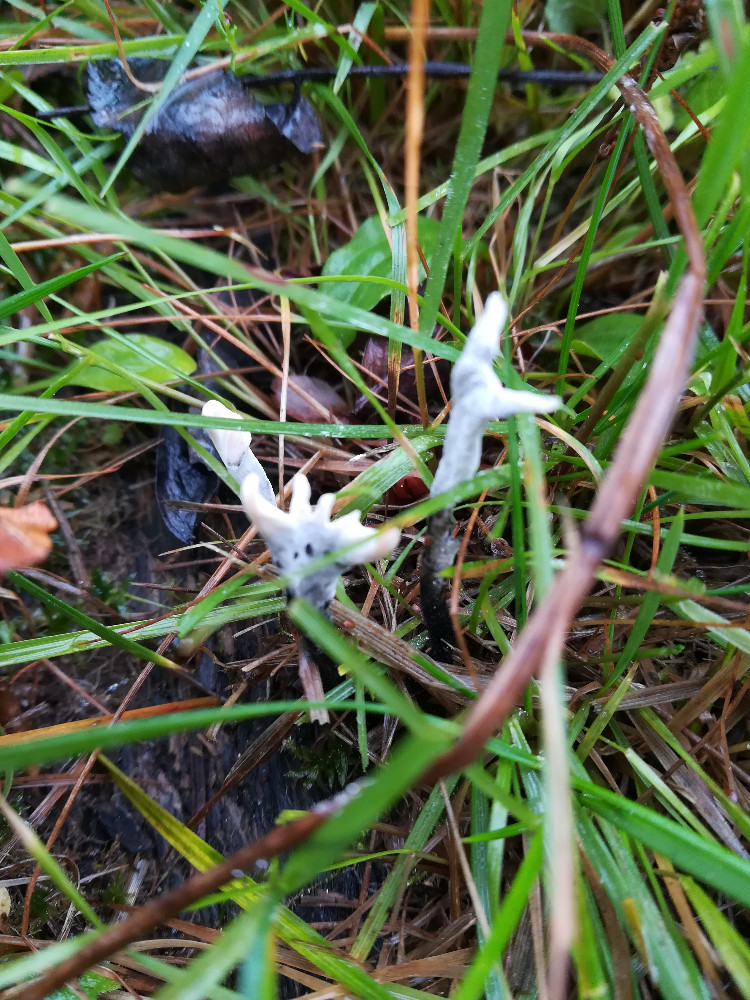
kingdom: Fungi
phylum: Ascomycota
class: Sordariomycetes
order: Xylariales
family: Xylariaceae
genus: Xylaria
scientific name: Xylaria hypoxylon
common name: grenet stødsvamp
